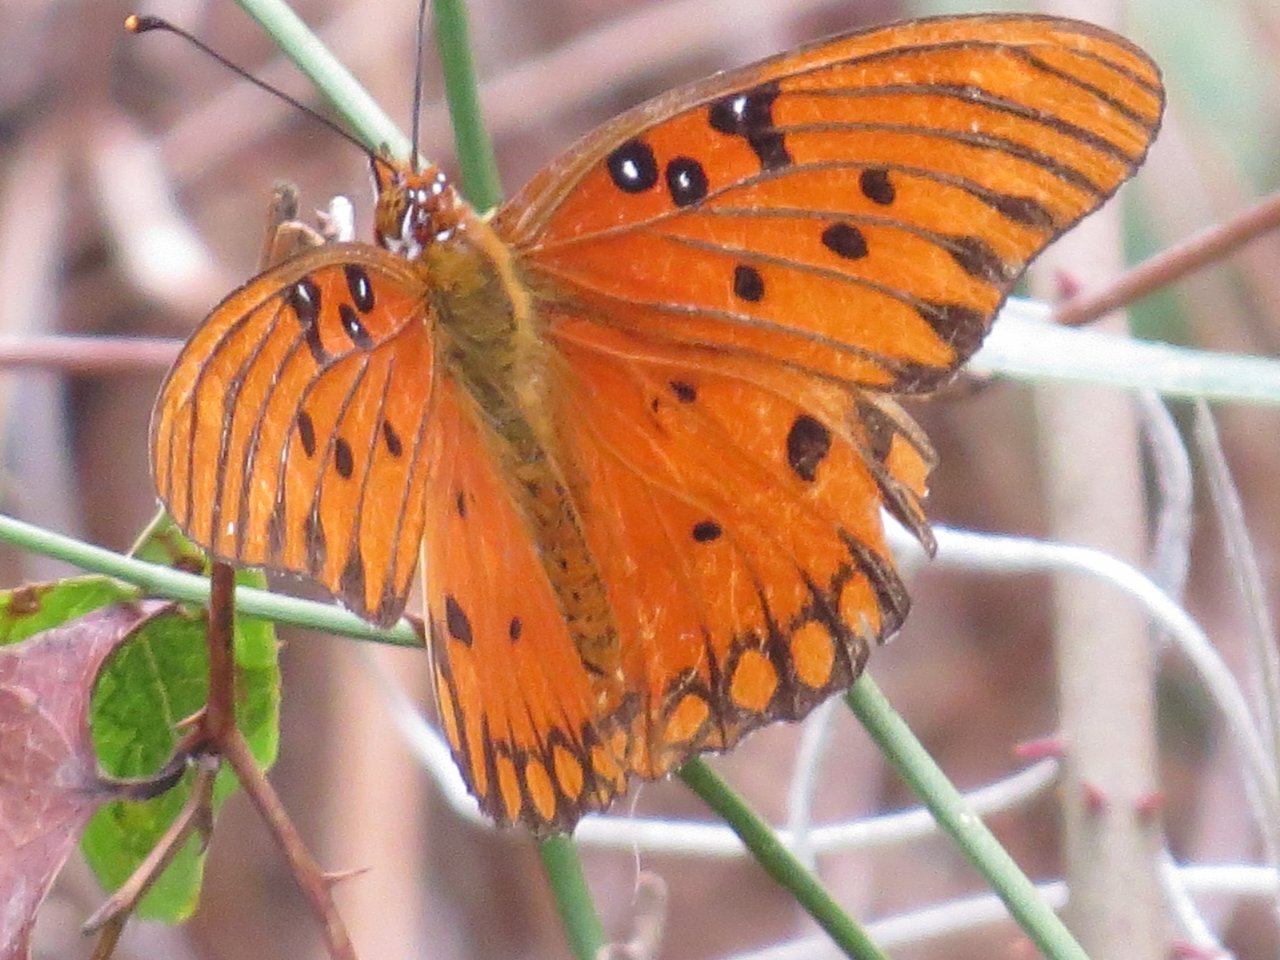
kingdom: Animalia
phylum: Arthropoda
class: Insecta
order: Lepidoptera
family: Nymphalidae
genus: Dione
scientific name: Dione vanillae
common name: Gulf Fritillary
